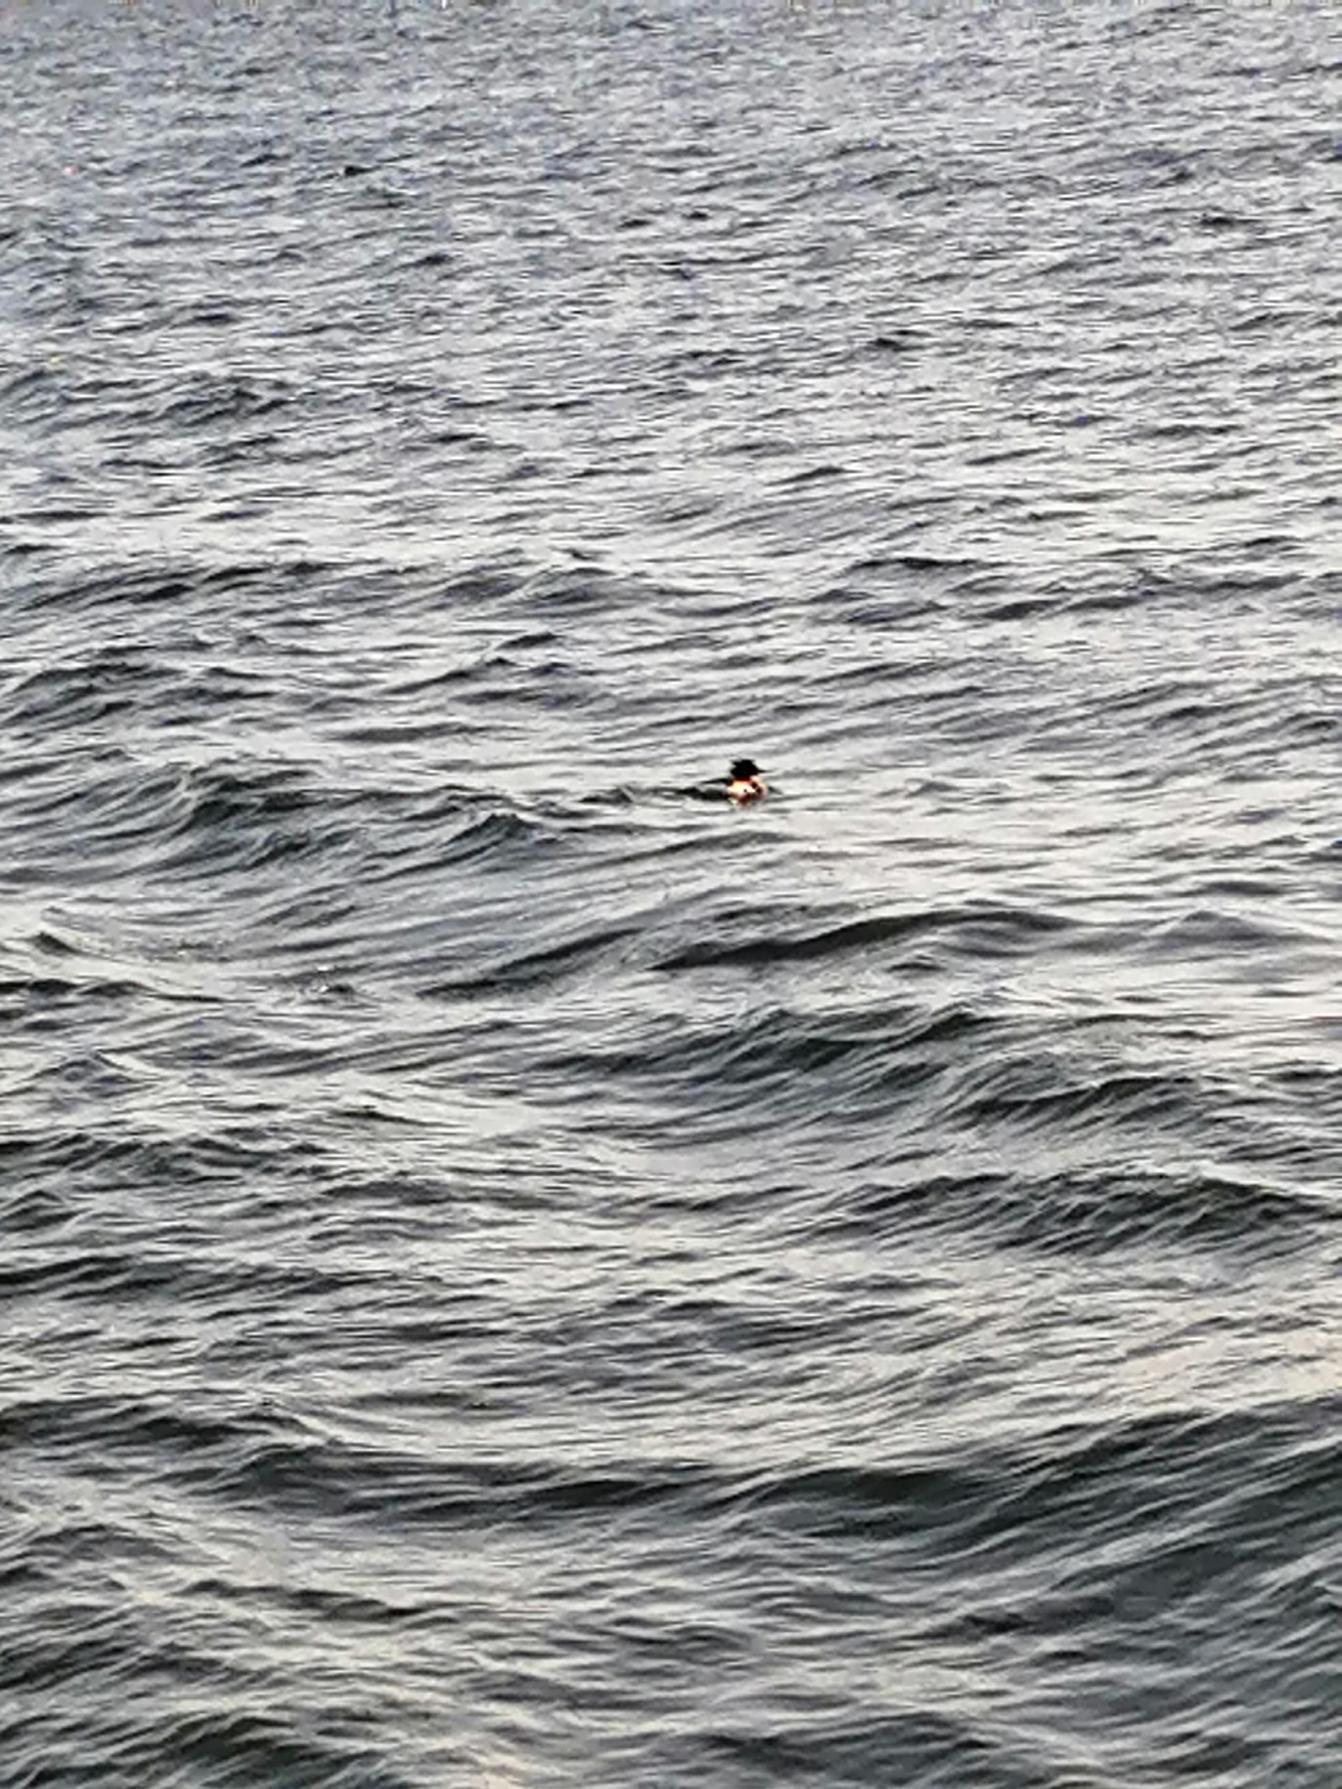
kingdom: Animalia
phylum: Chordata
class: Aves
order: Anseriformes
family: Anatidae
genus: Mergus
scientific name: Mergus serrator
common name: Toppet skallesluger
